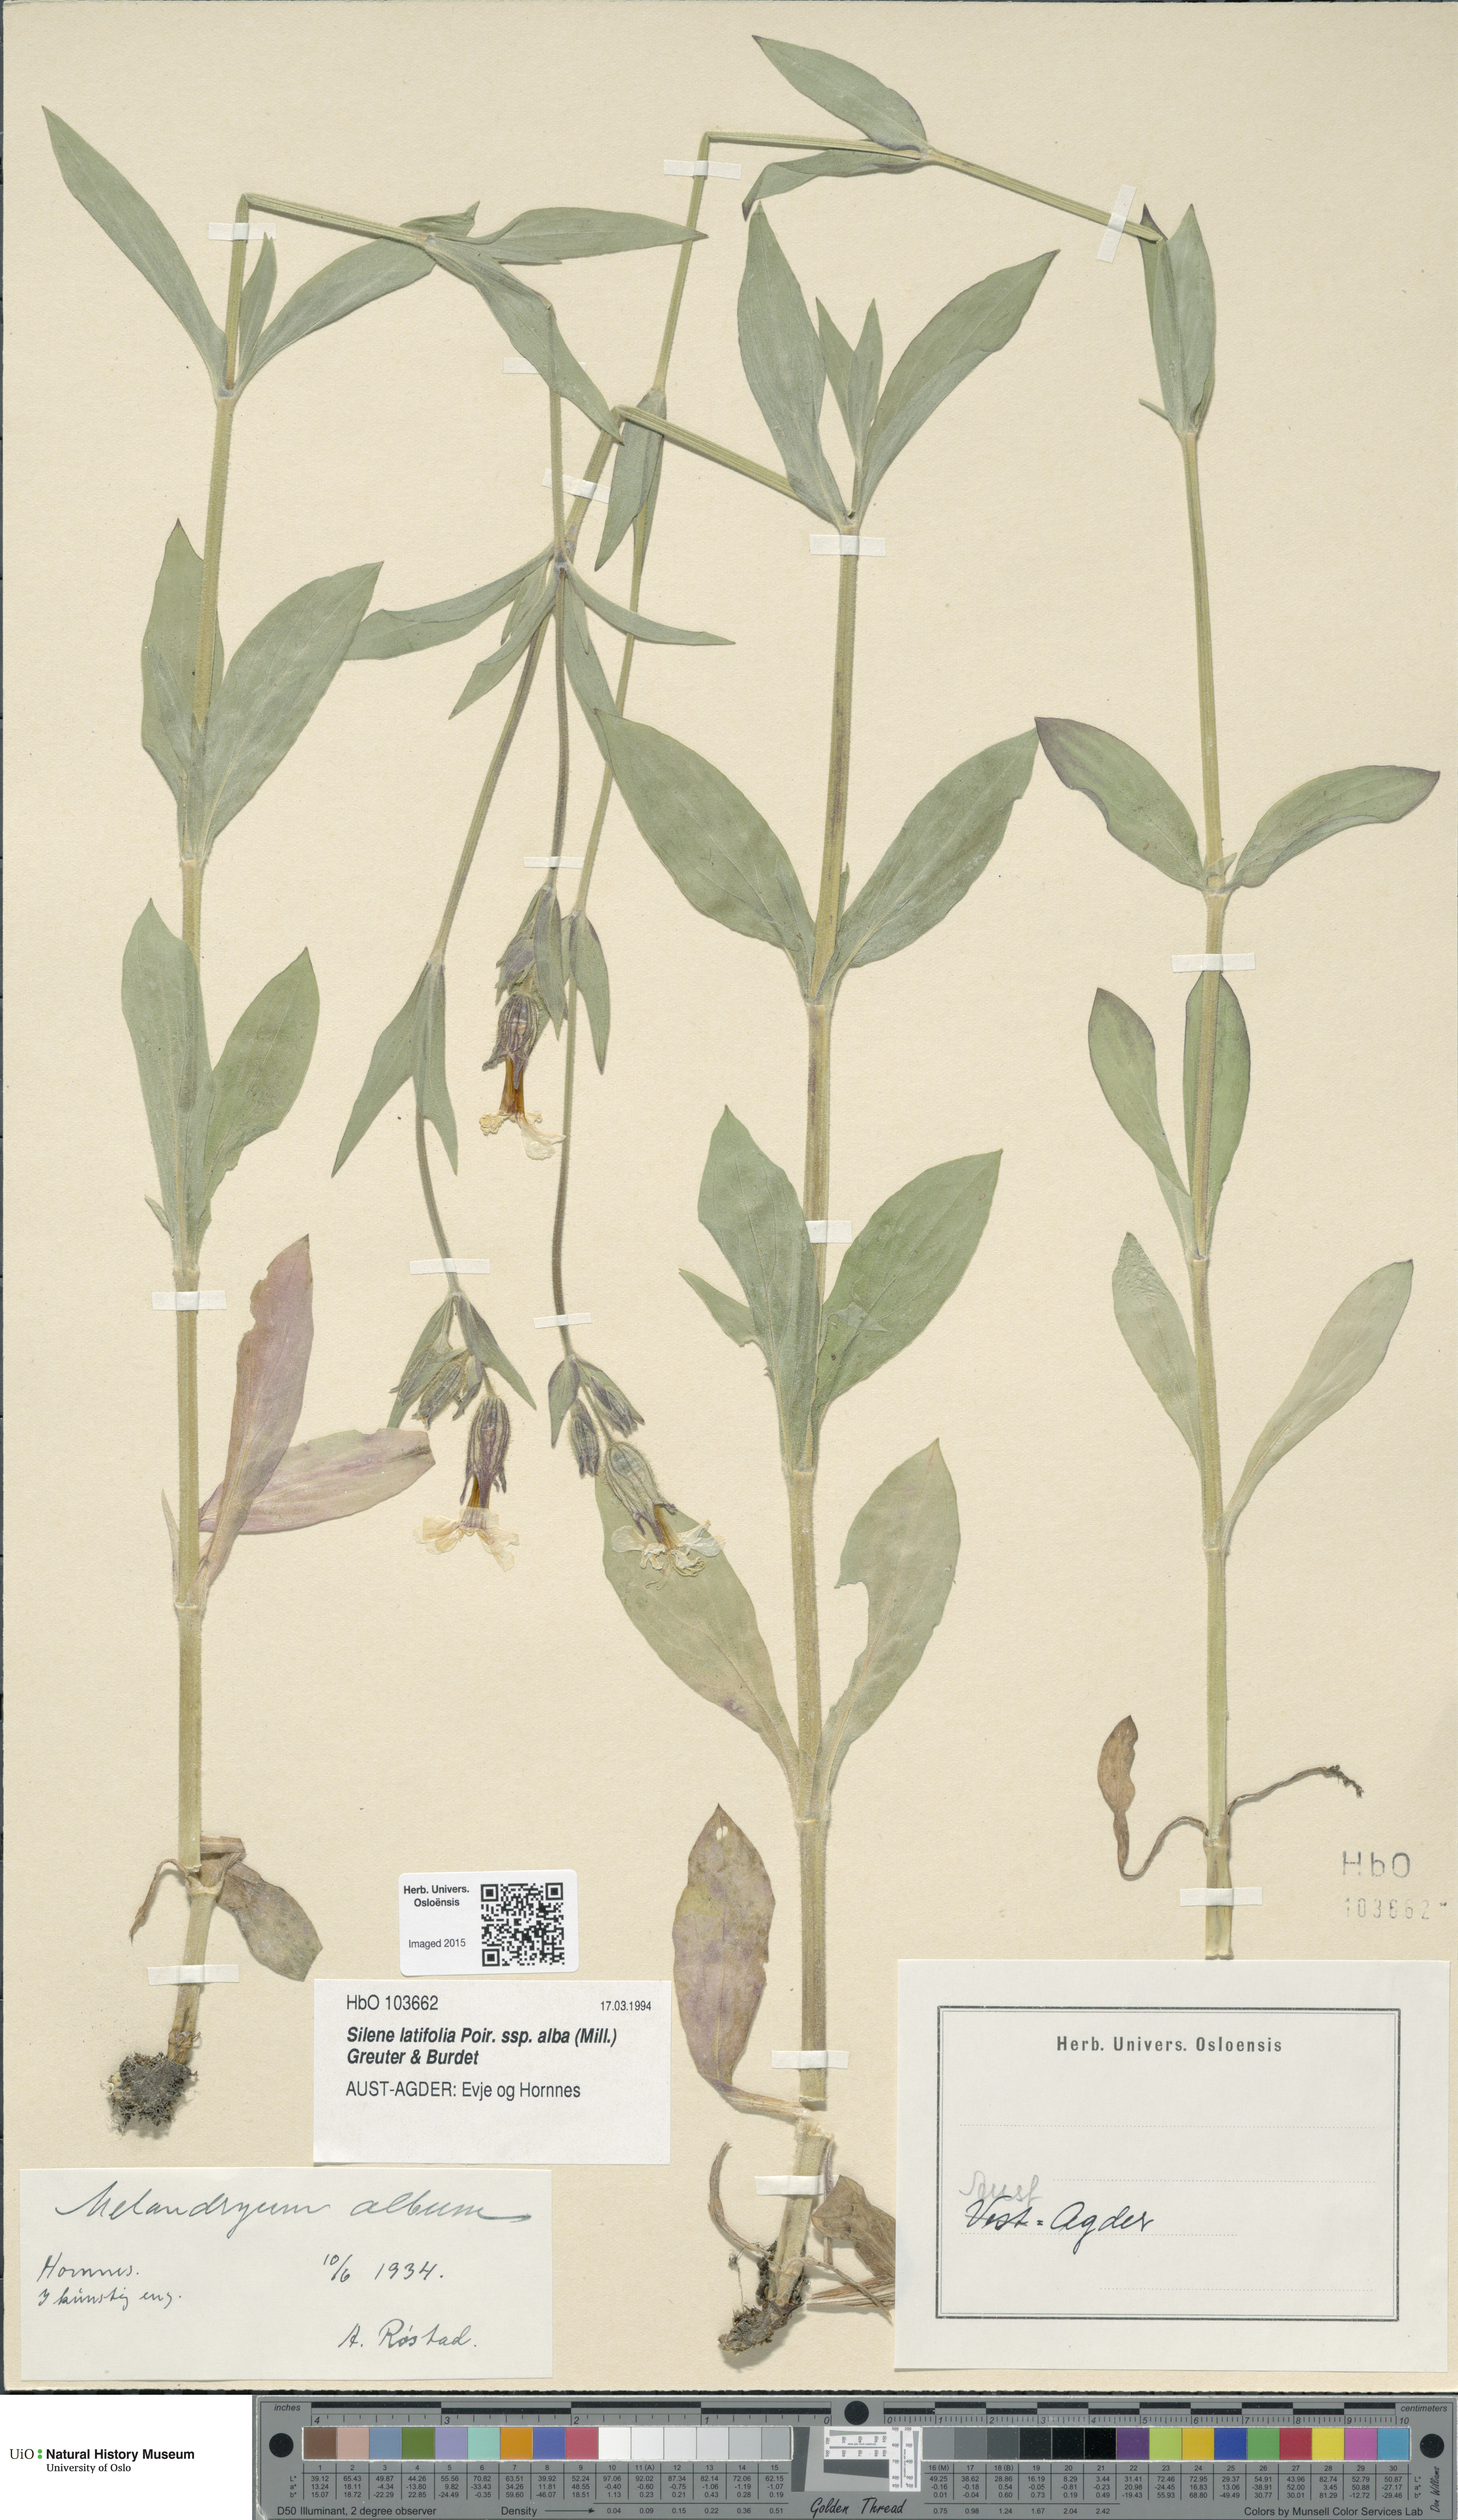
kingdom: Plantae
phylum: Tracheophyta
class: Magnoliopsida
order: Caryophyllales
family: Caryophyllaceae
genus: Silene
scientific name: Silene latifolia
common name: White campion
